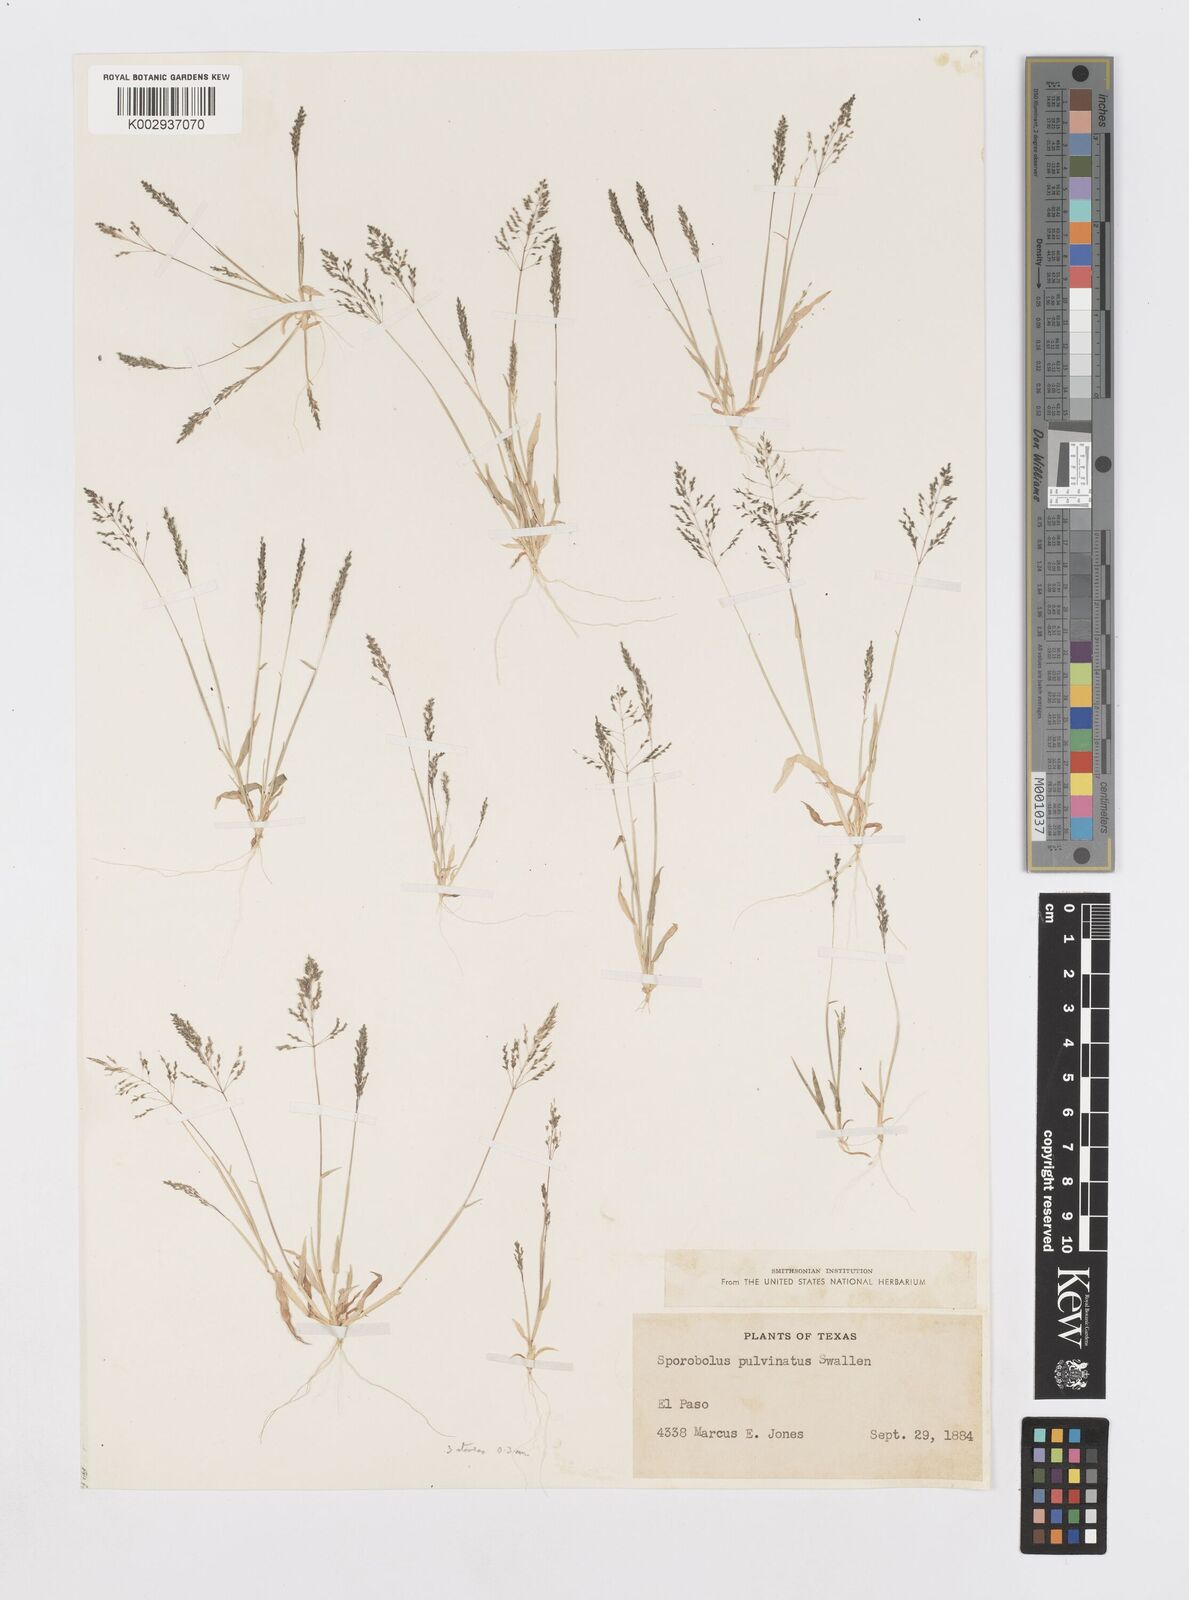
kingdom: Plantae
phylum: Tracheophyta
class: Liliopsida
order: Poales
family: Poaceae
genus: Sporobolus
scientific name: Sporobolus pyramidatus
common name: Whorled dropseed
